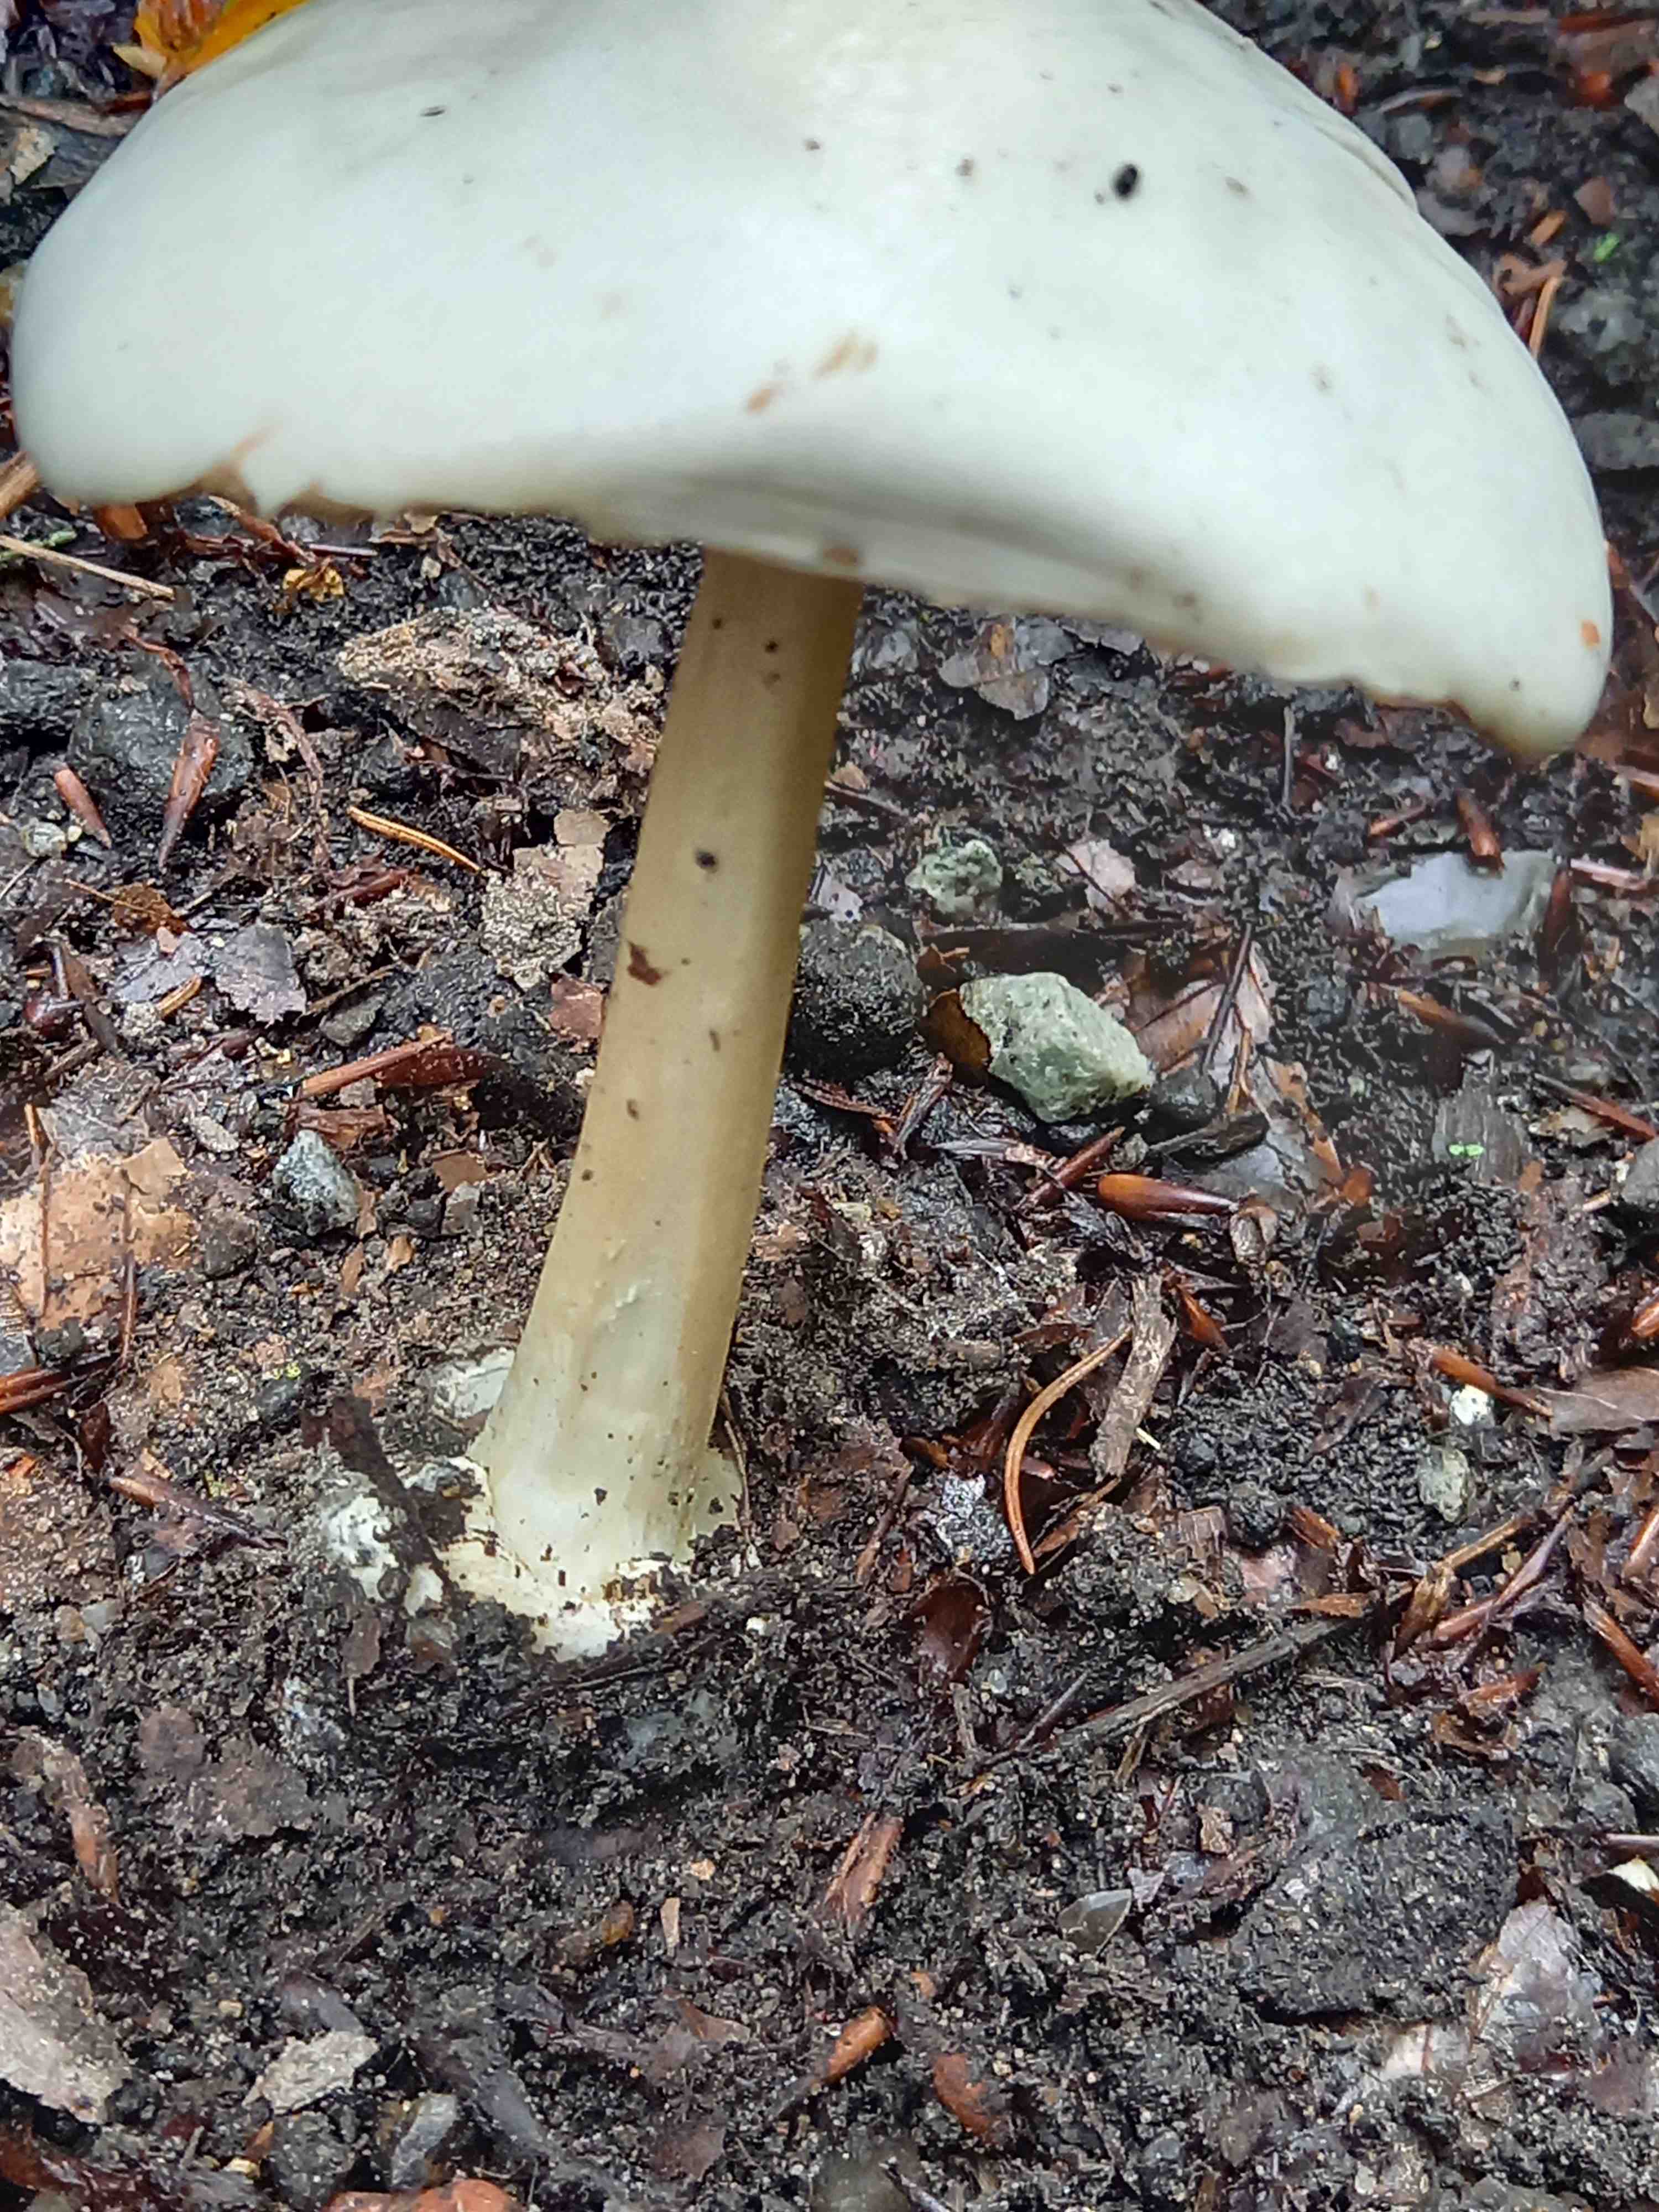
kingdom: Fungi
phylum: Basidiomycota
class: Agaricomycetes
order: Agaricales
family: Pluteaceae
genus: Volvopluteus
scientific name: Volvopluteus gloiocephalus
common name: høj posesvamp
